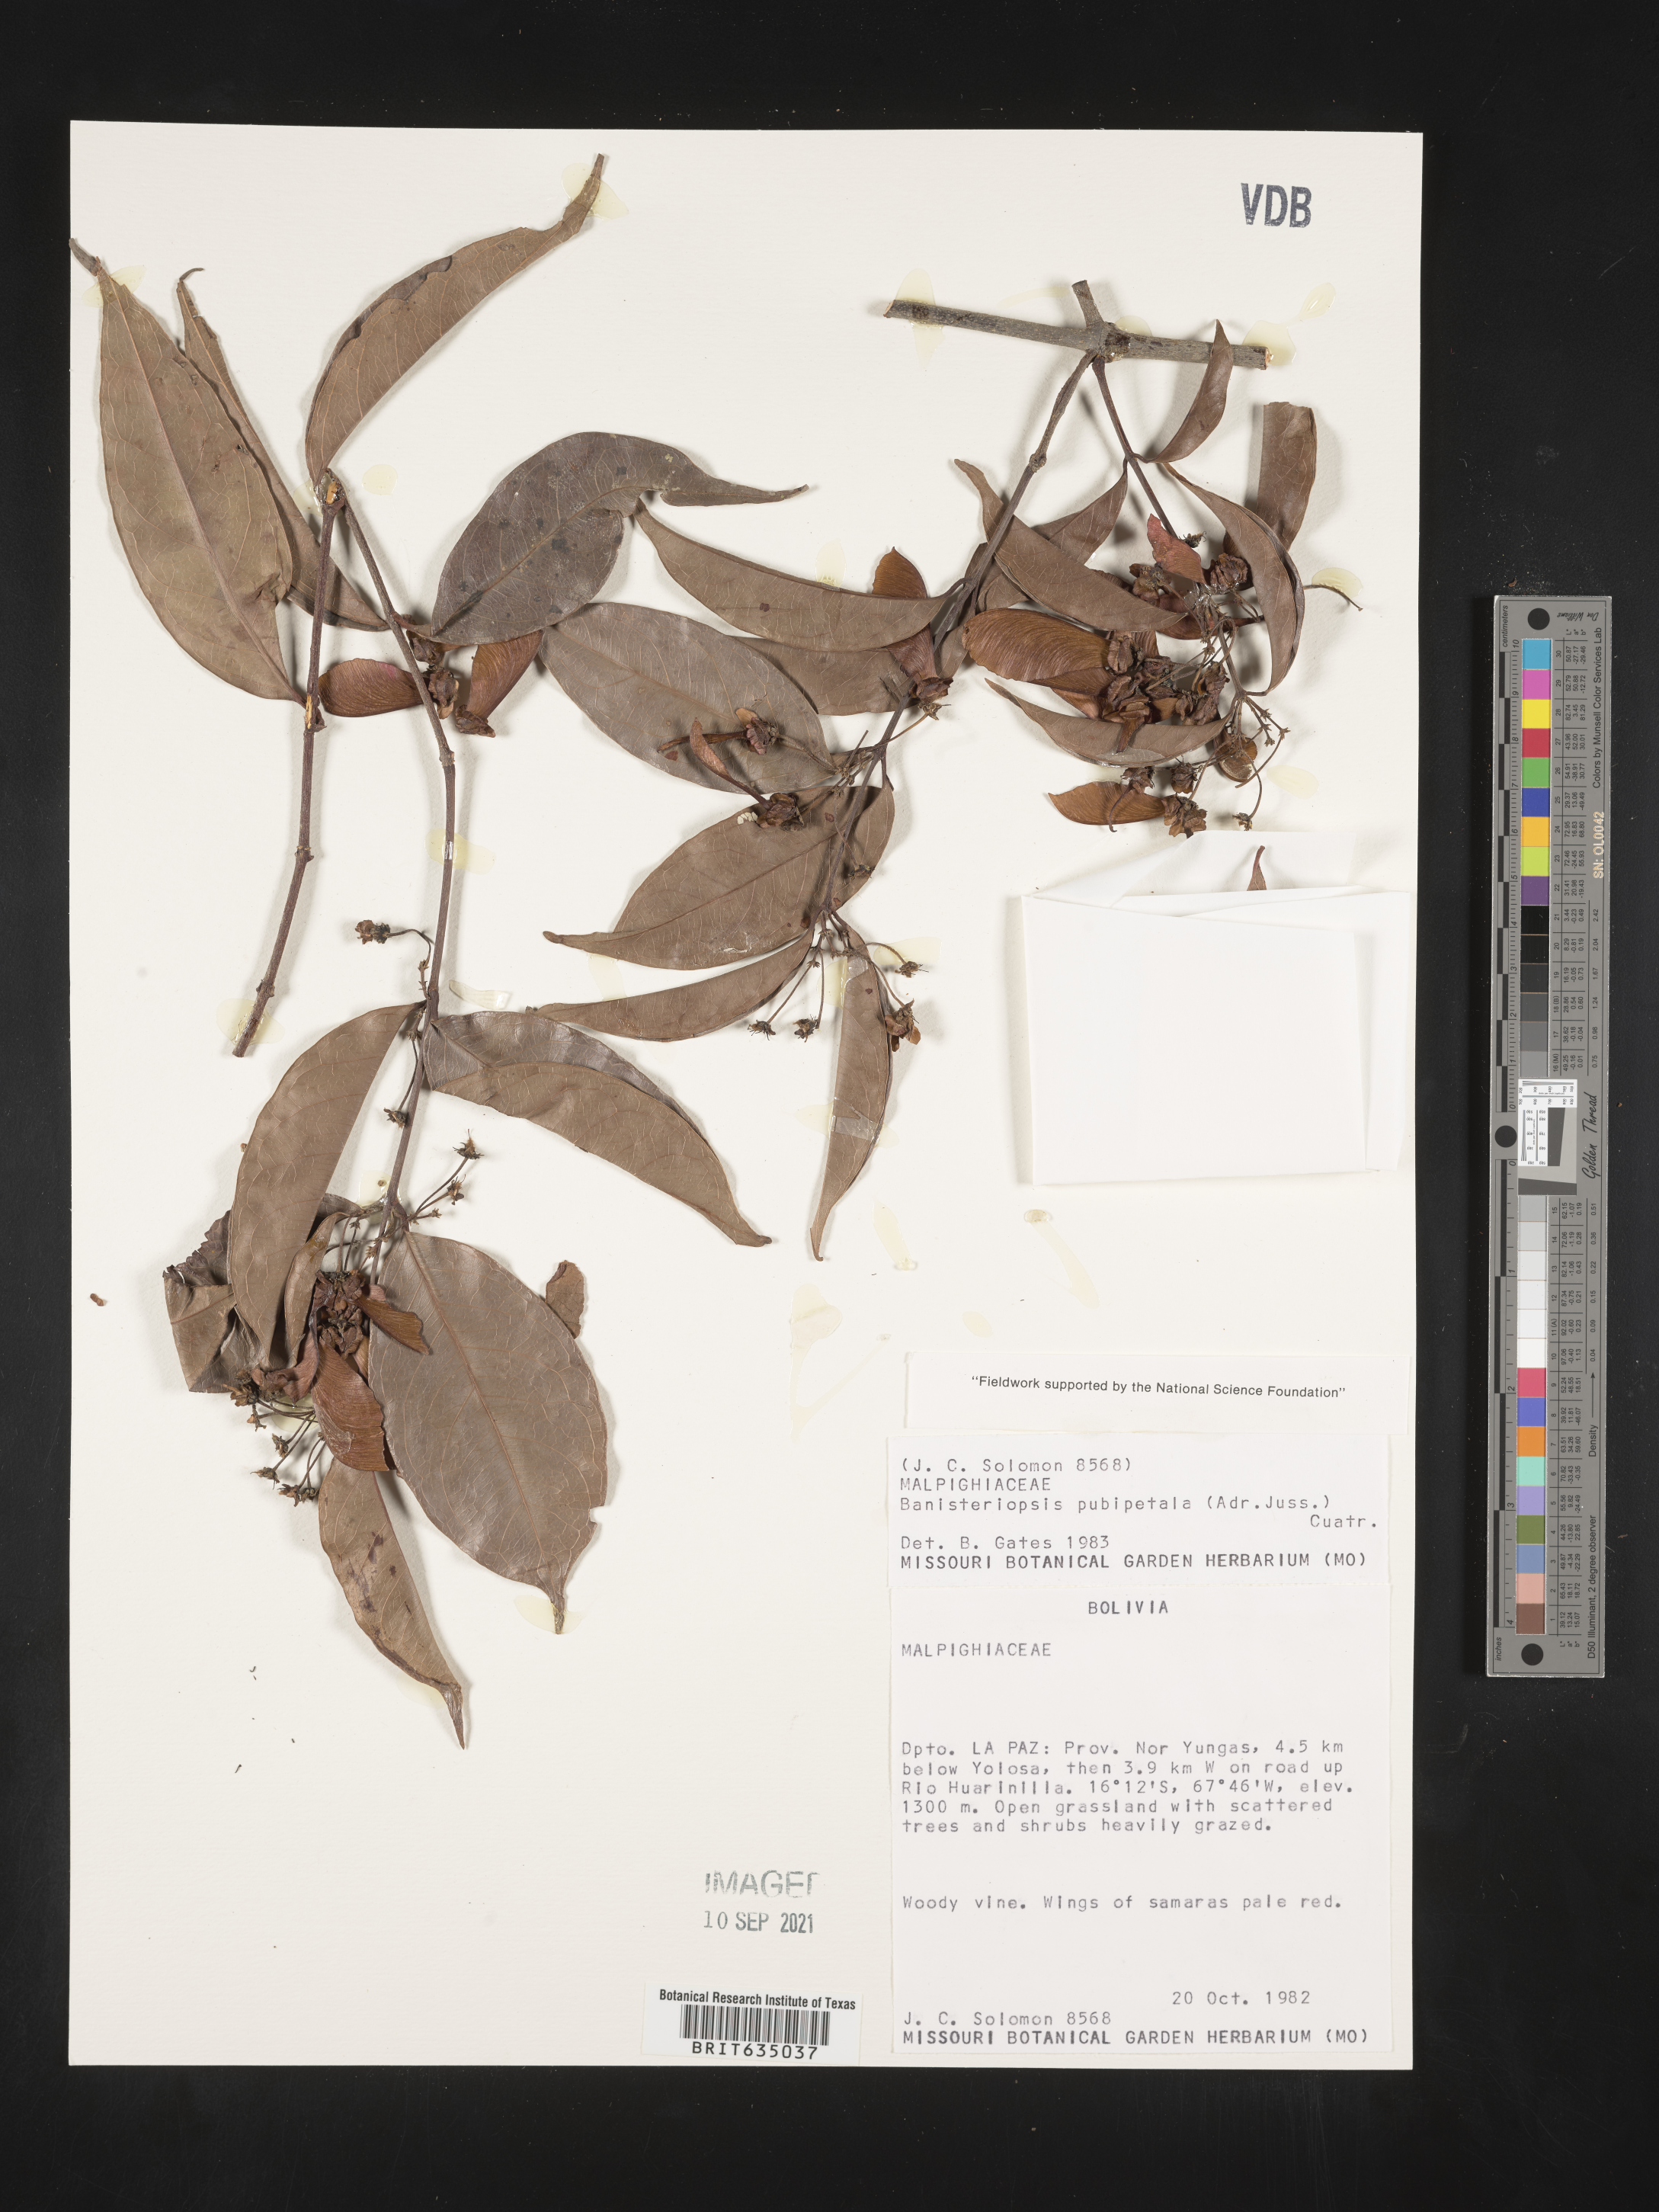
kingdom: Plantae
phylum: Tracheophyta
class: Magnoliopsida
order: Malpighiales
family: Malpighiaceae
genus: Banisteriopsis
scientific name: Banisteriopsis
